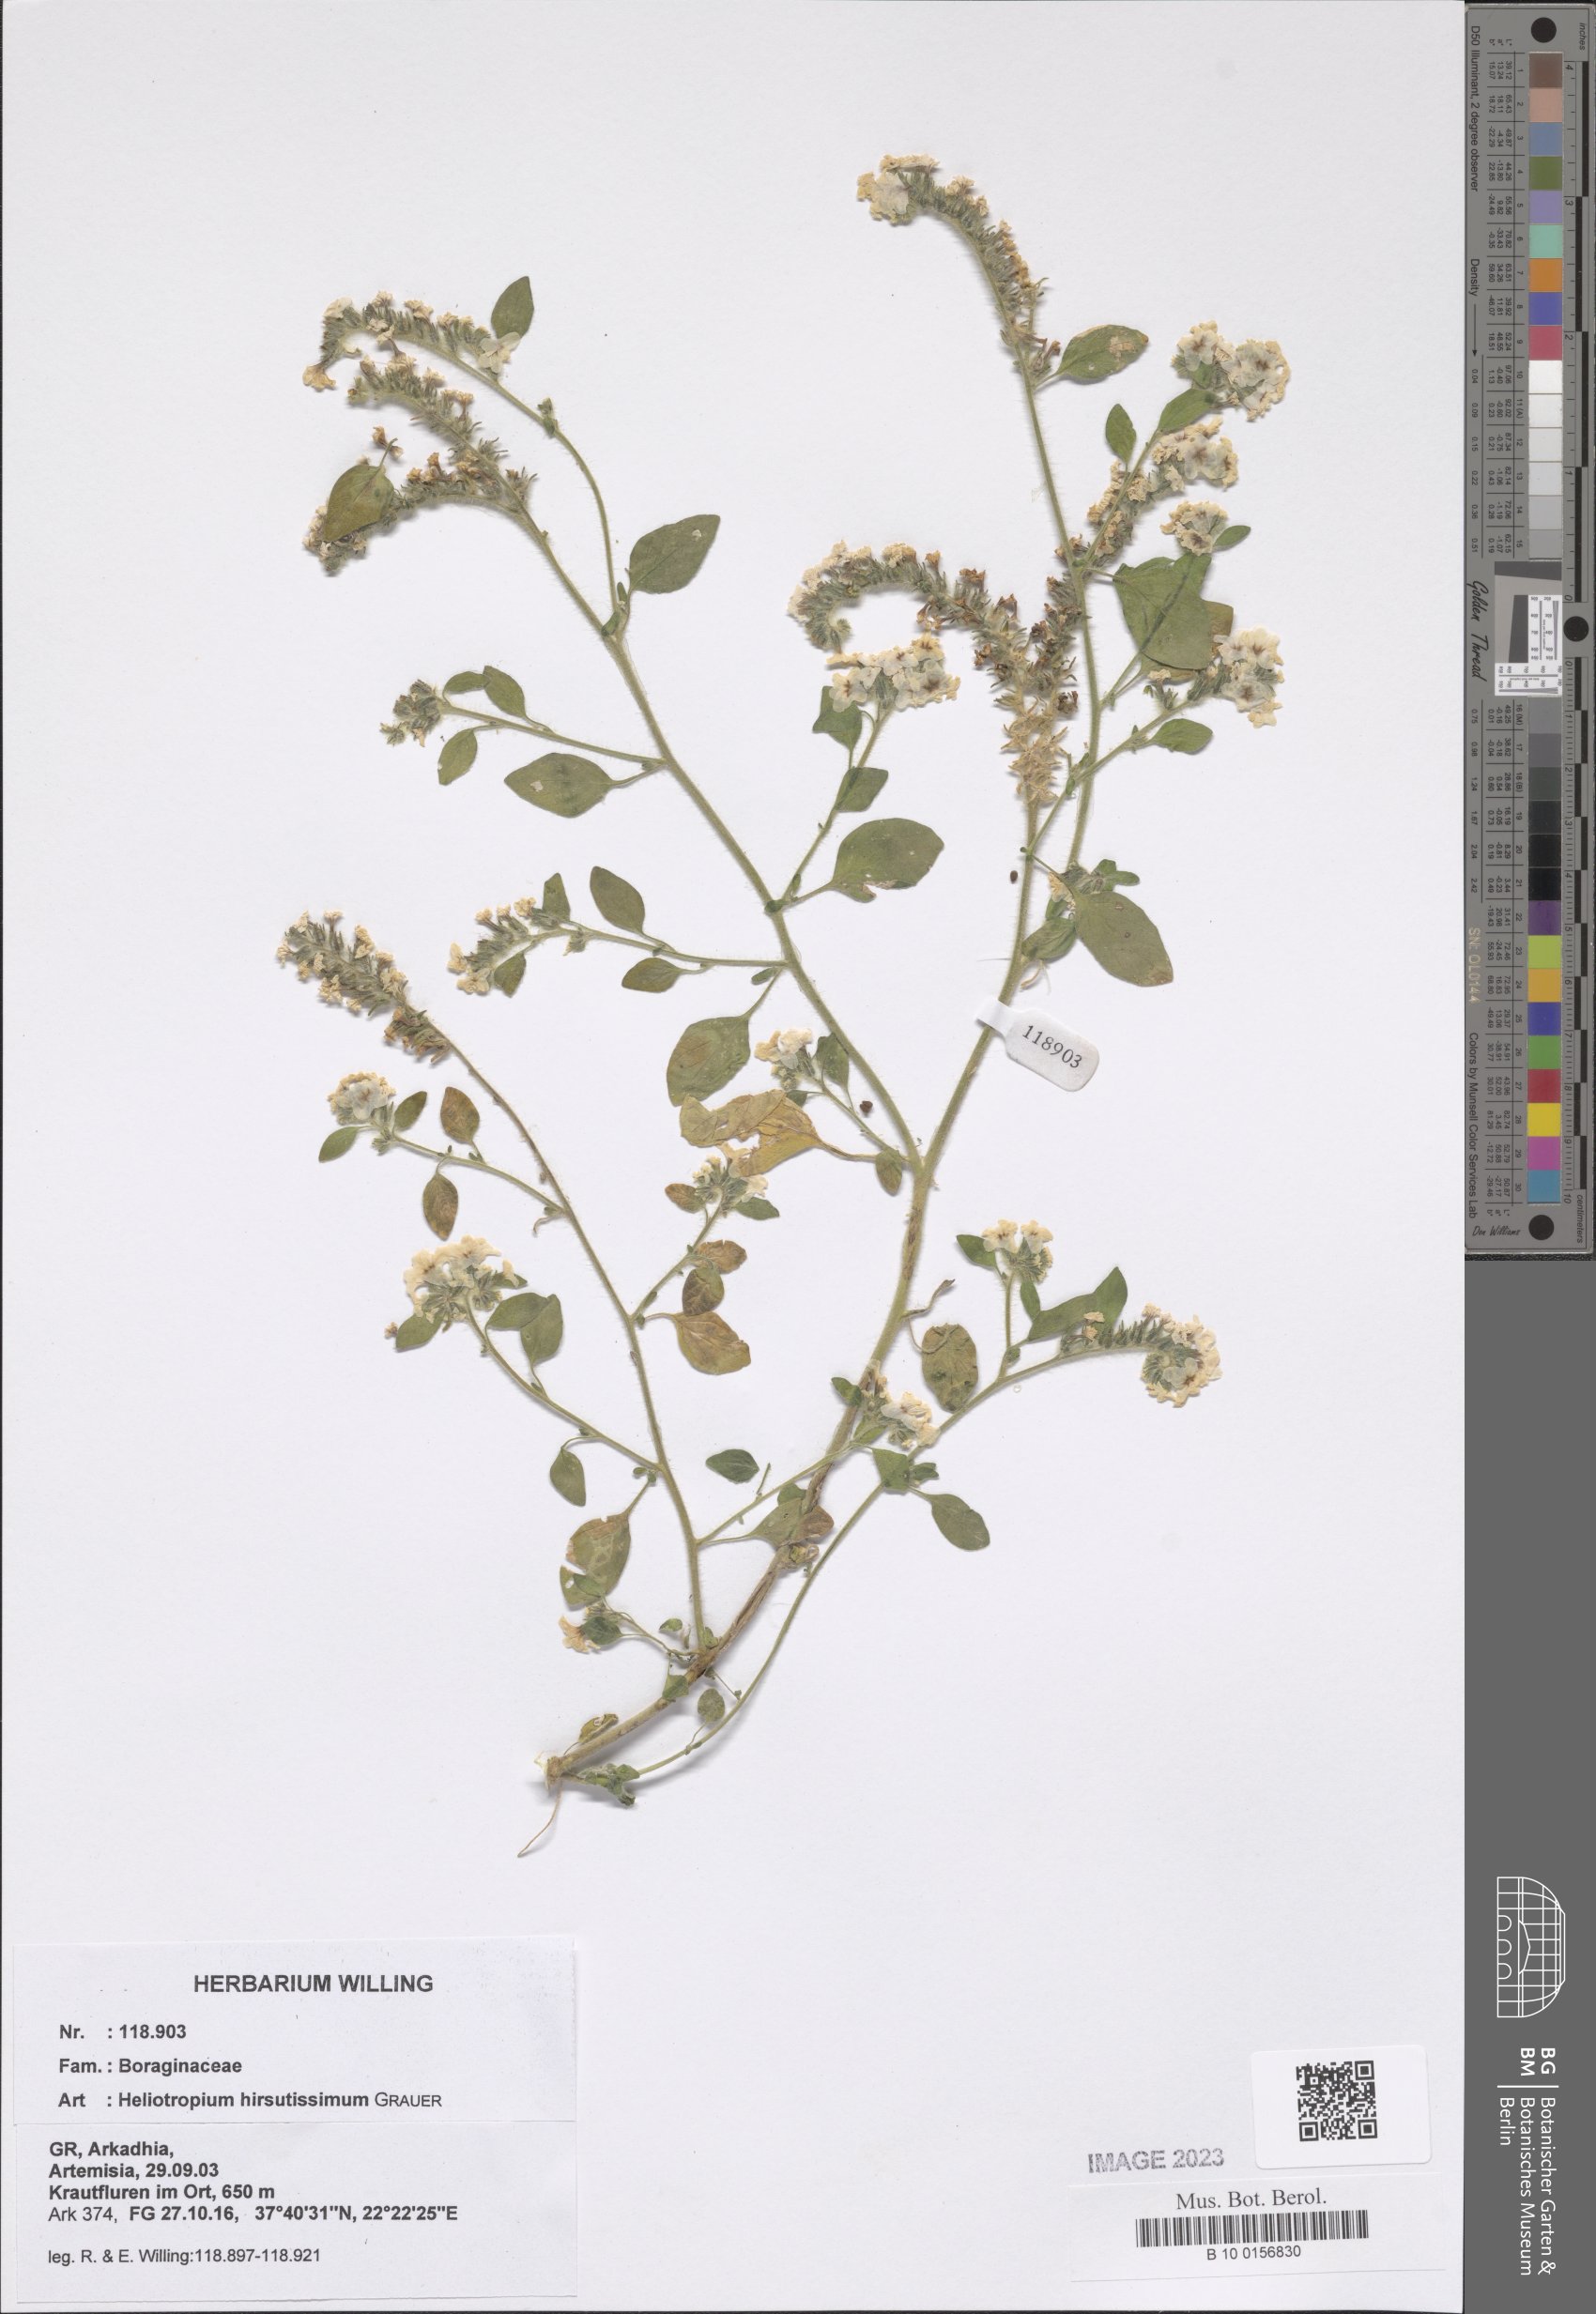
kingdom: Plantae
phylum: Tracheophyta
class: Magnoliopsida
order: Boraginales
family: Heliotropiaceae
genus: Heliotropium
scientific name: Heliotropium hirsutissimum
